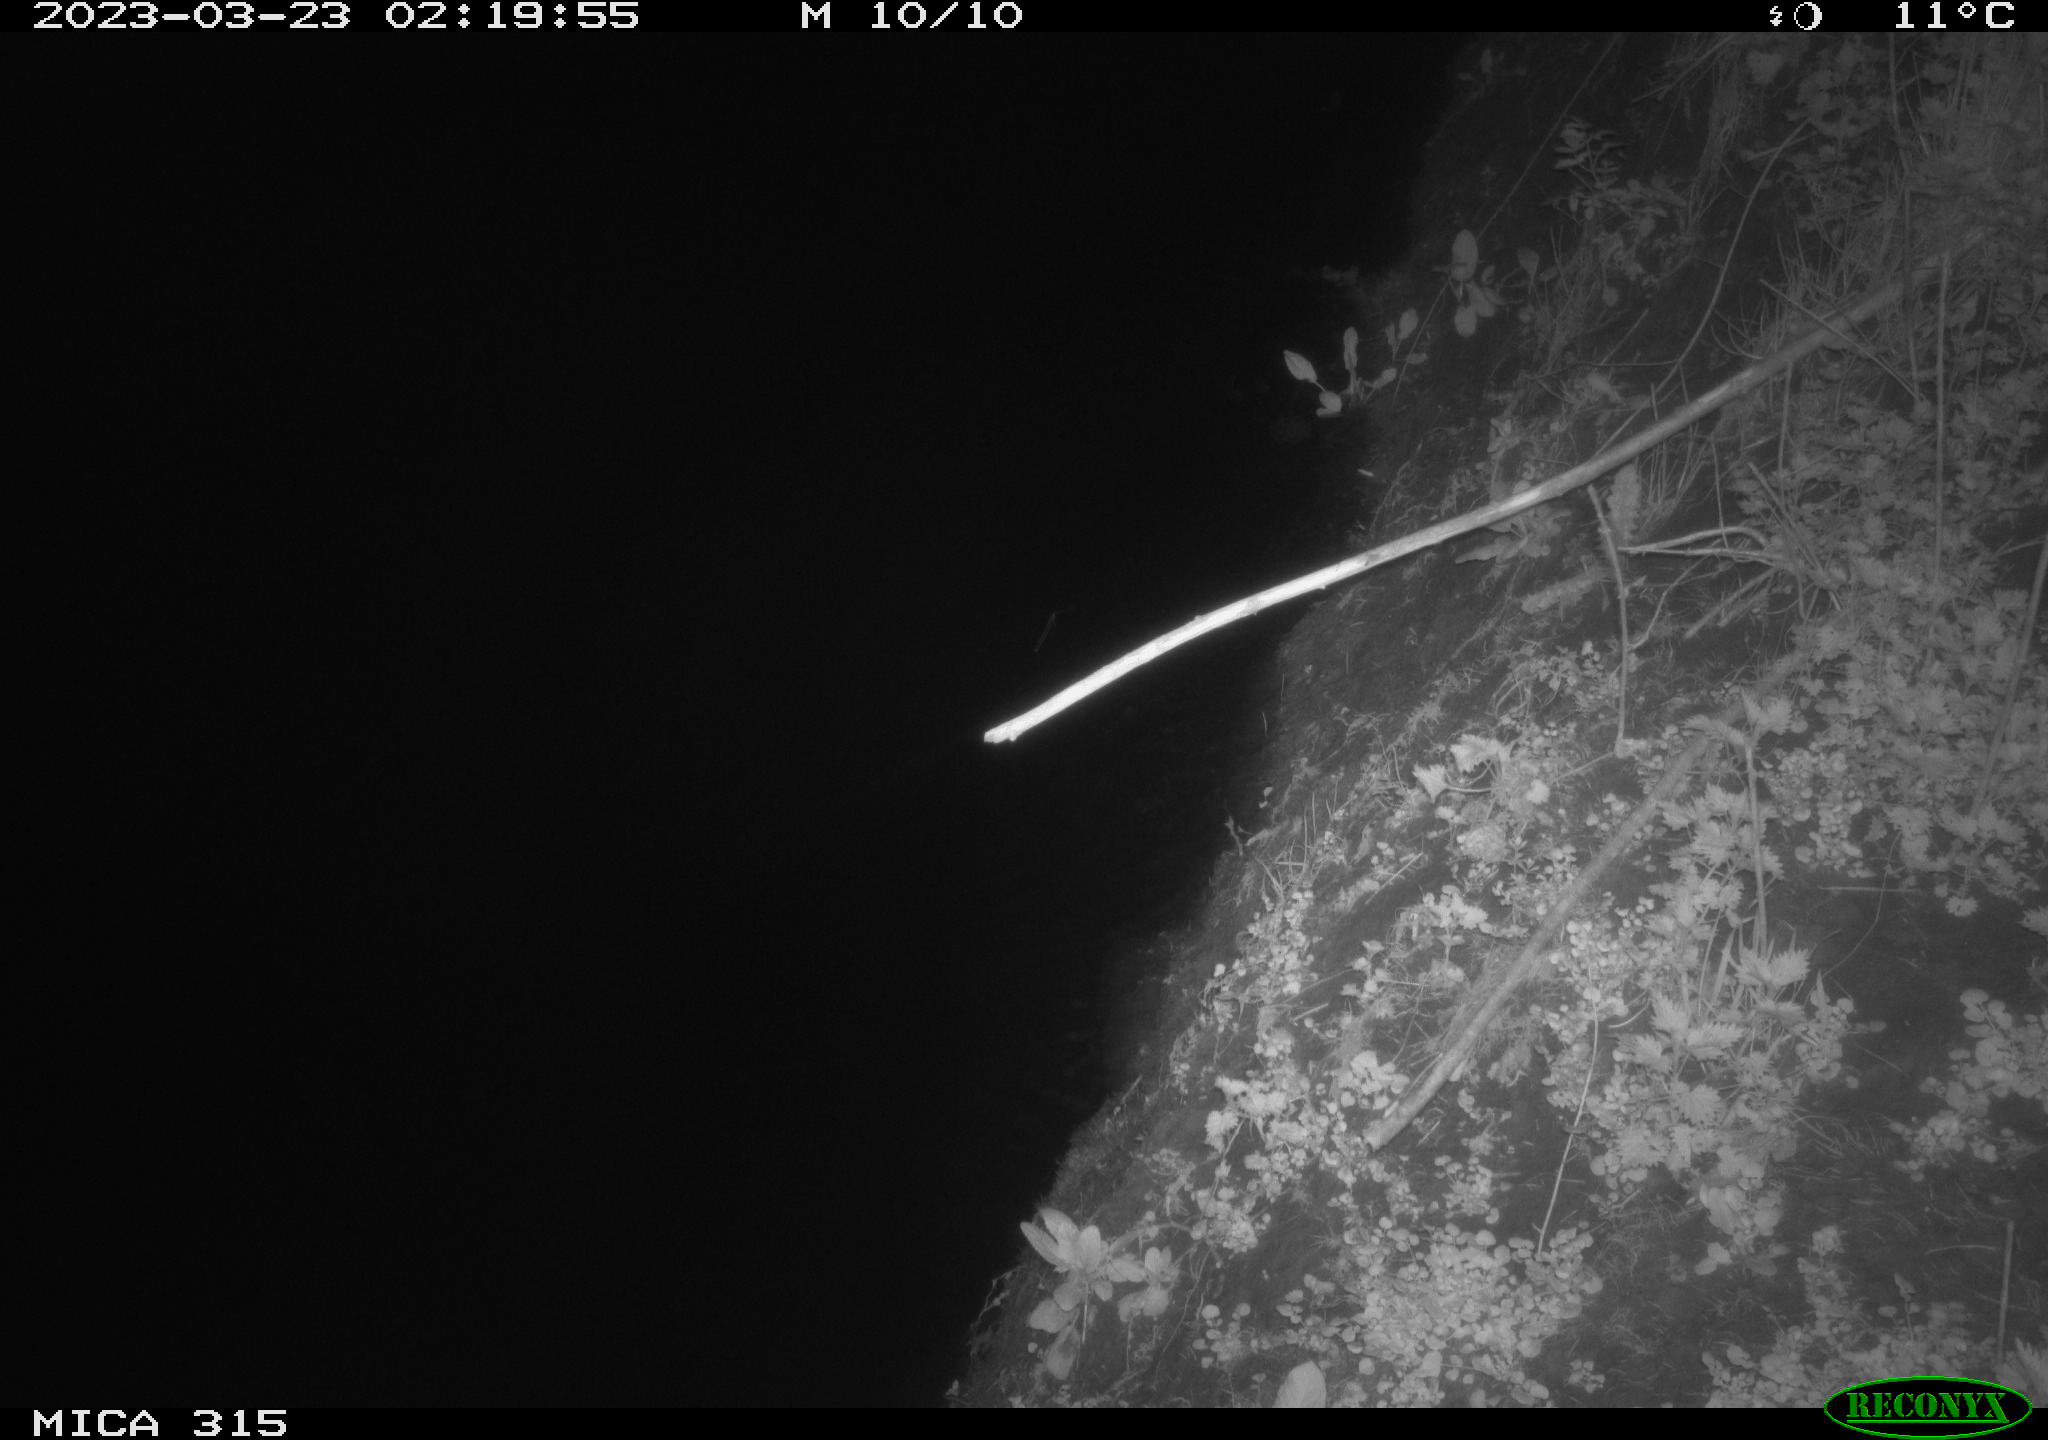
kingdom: Animalia
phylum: Chordata
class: Aves
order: Anseriformes
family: Anatidae
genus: Anas
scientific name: Anas
